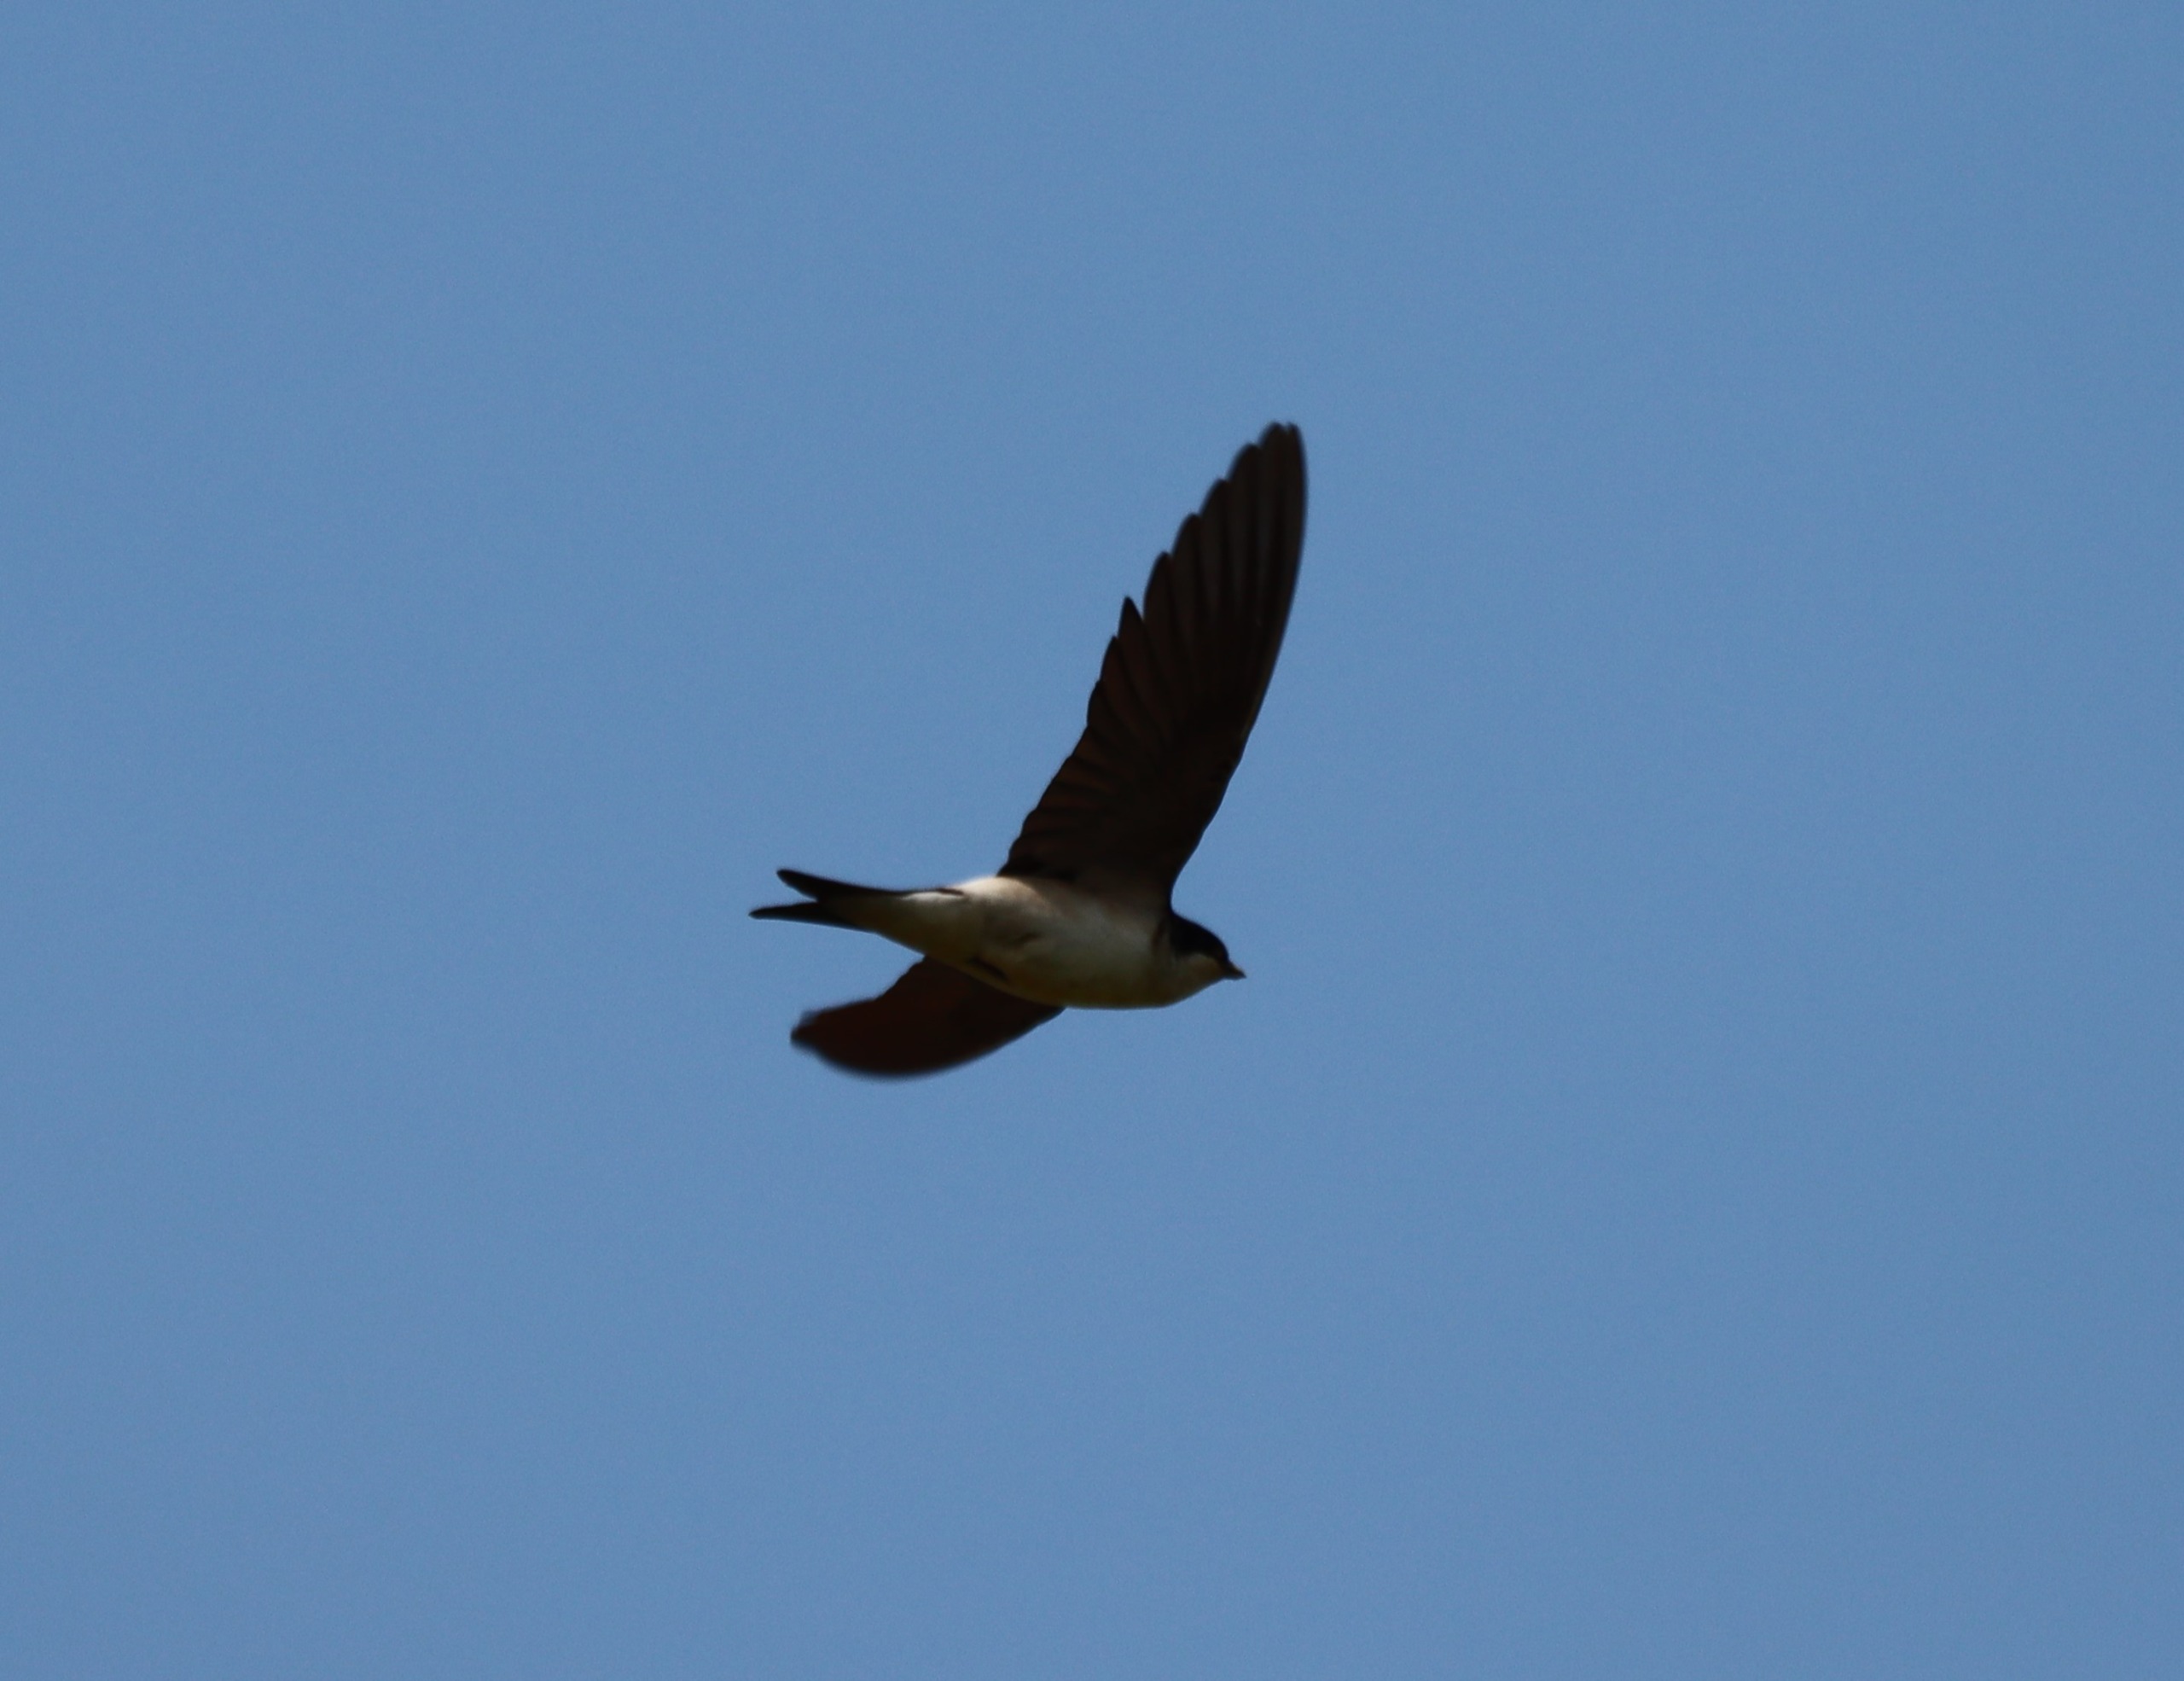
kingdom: Animalia
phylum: Chordata
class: Aves
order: Passeriformes
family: Hirundinidae
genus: Delichon
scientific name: Delichon urbicum
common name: Bysvale
